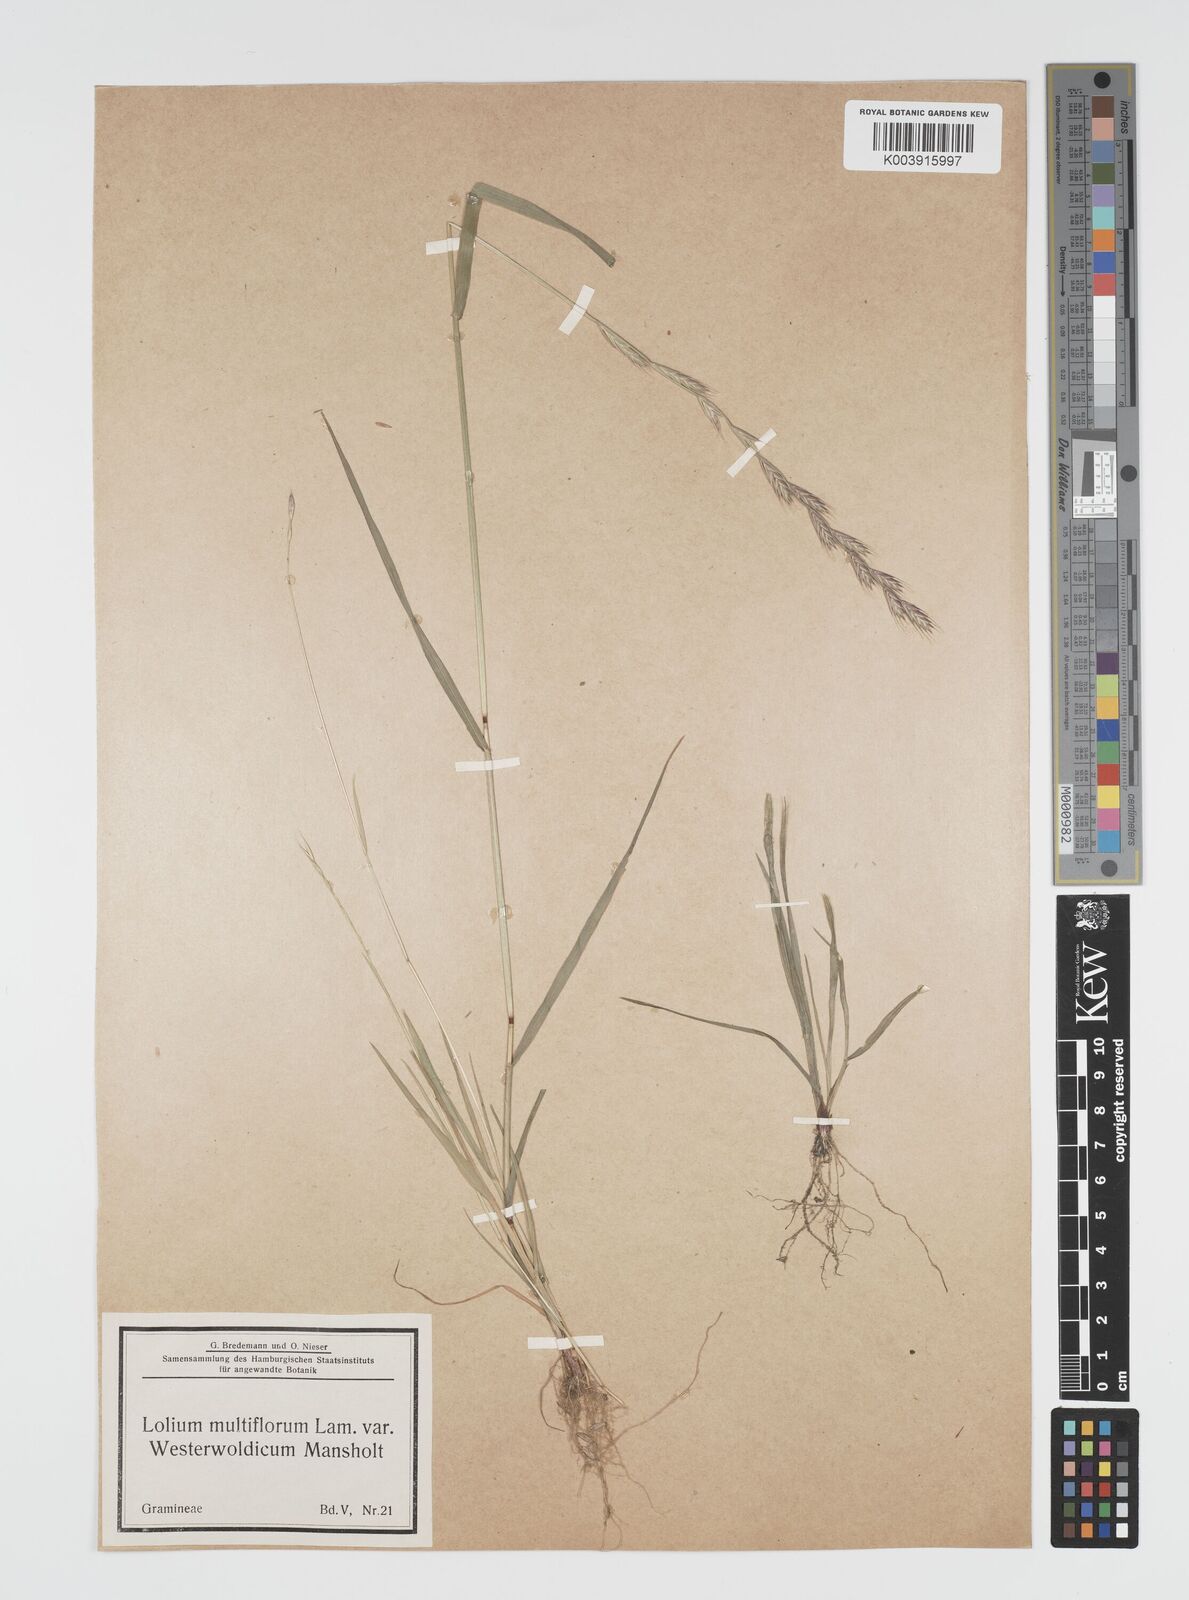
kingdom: Plantae
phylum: Tracheophyta
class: Liliopsida
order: Poales
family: Poaceae
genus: Lolium
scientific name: Lolium multiflorum
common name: Annual ryegrass
